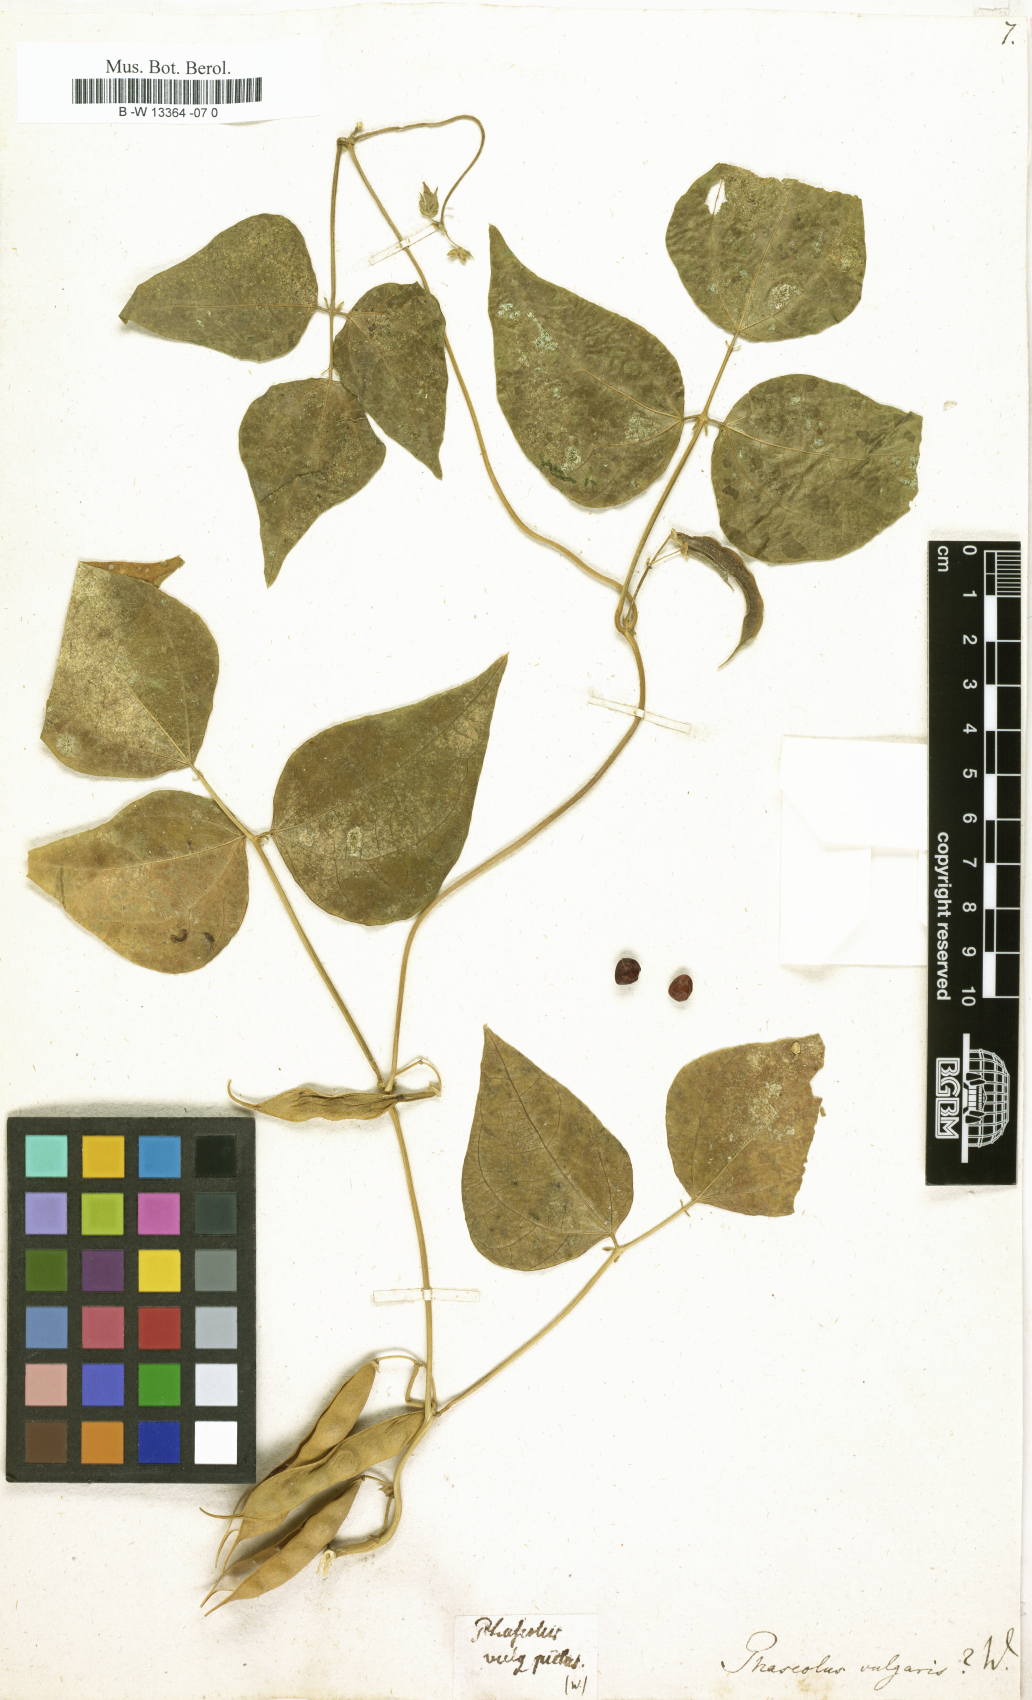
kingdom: Plantae
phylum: Tracheophyta
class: Magnoliopsida
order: Fabales
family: Fabaceae
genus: Phaseolus
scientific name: Phaseolus vulgaris
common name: Bean
